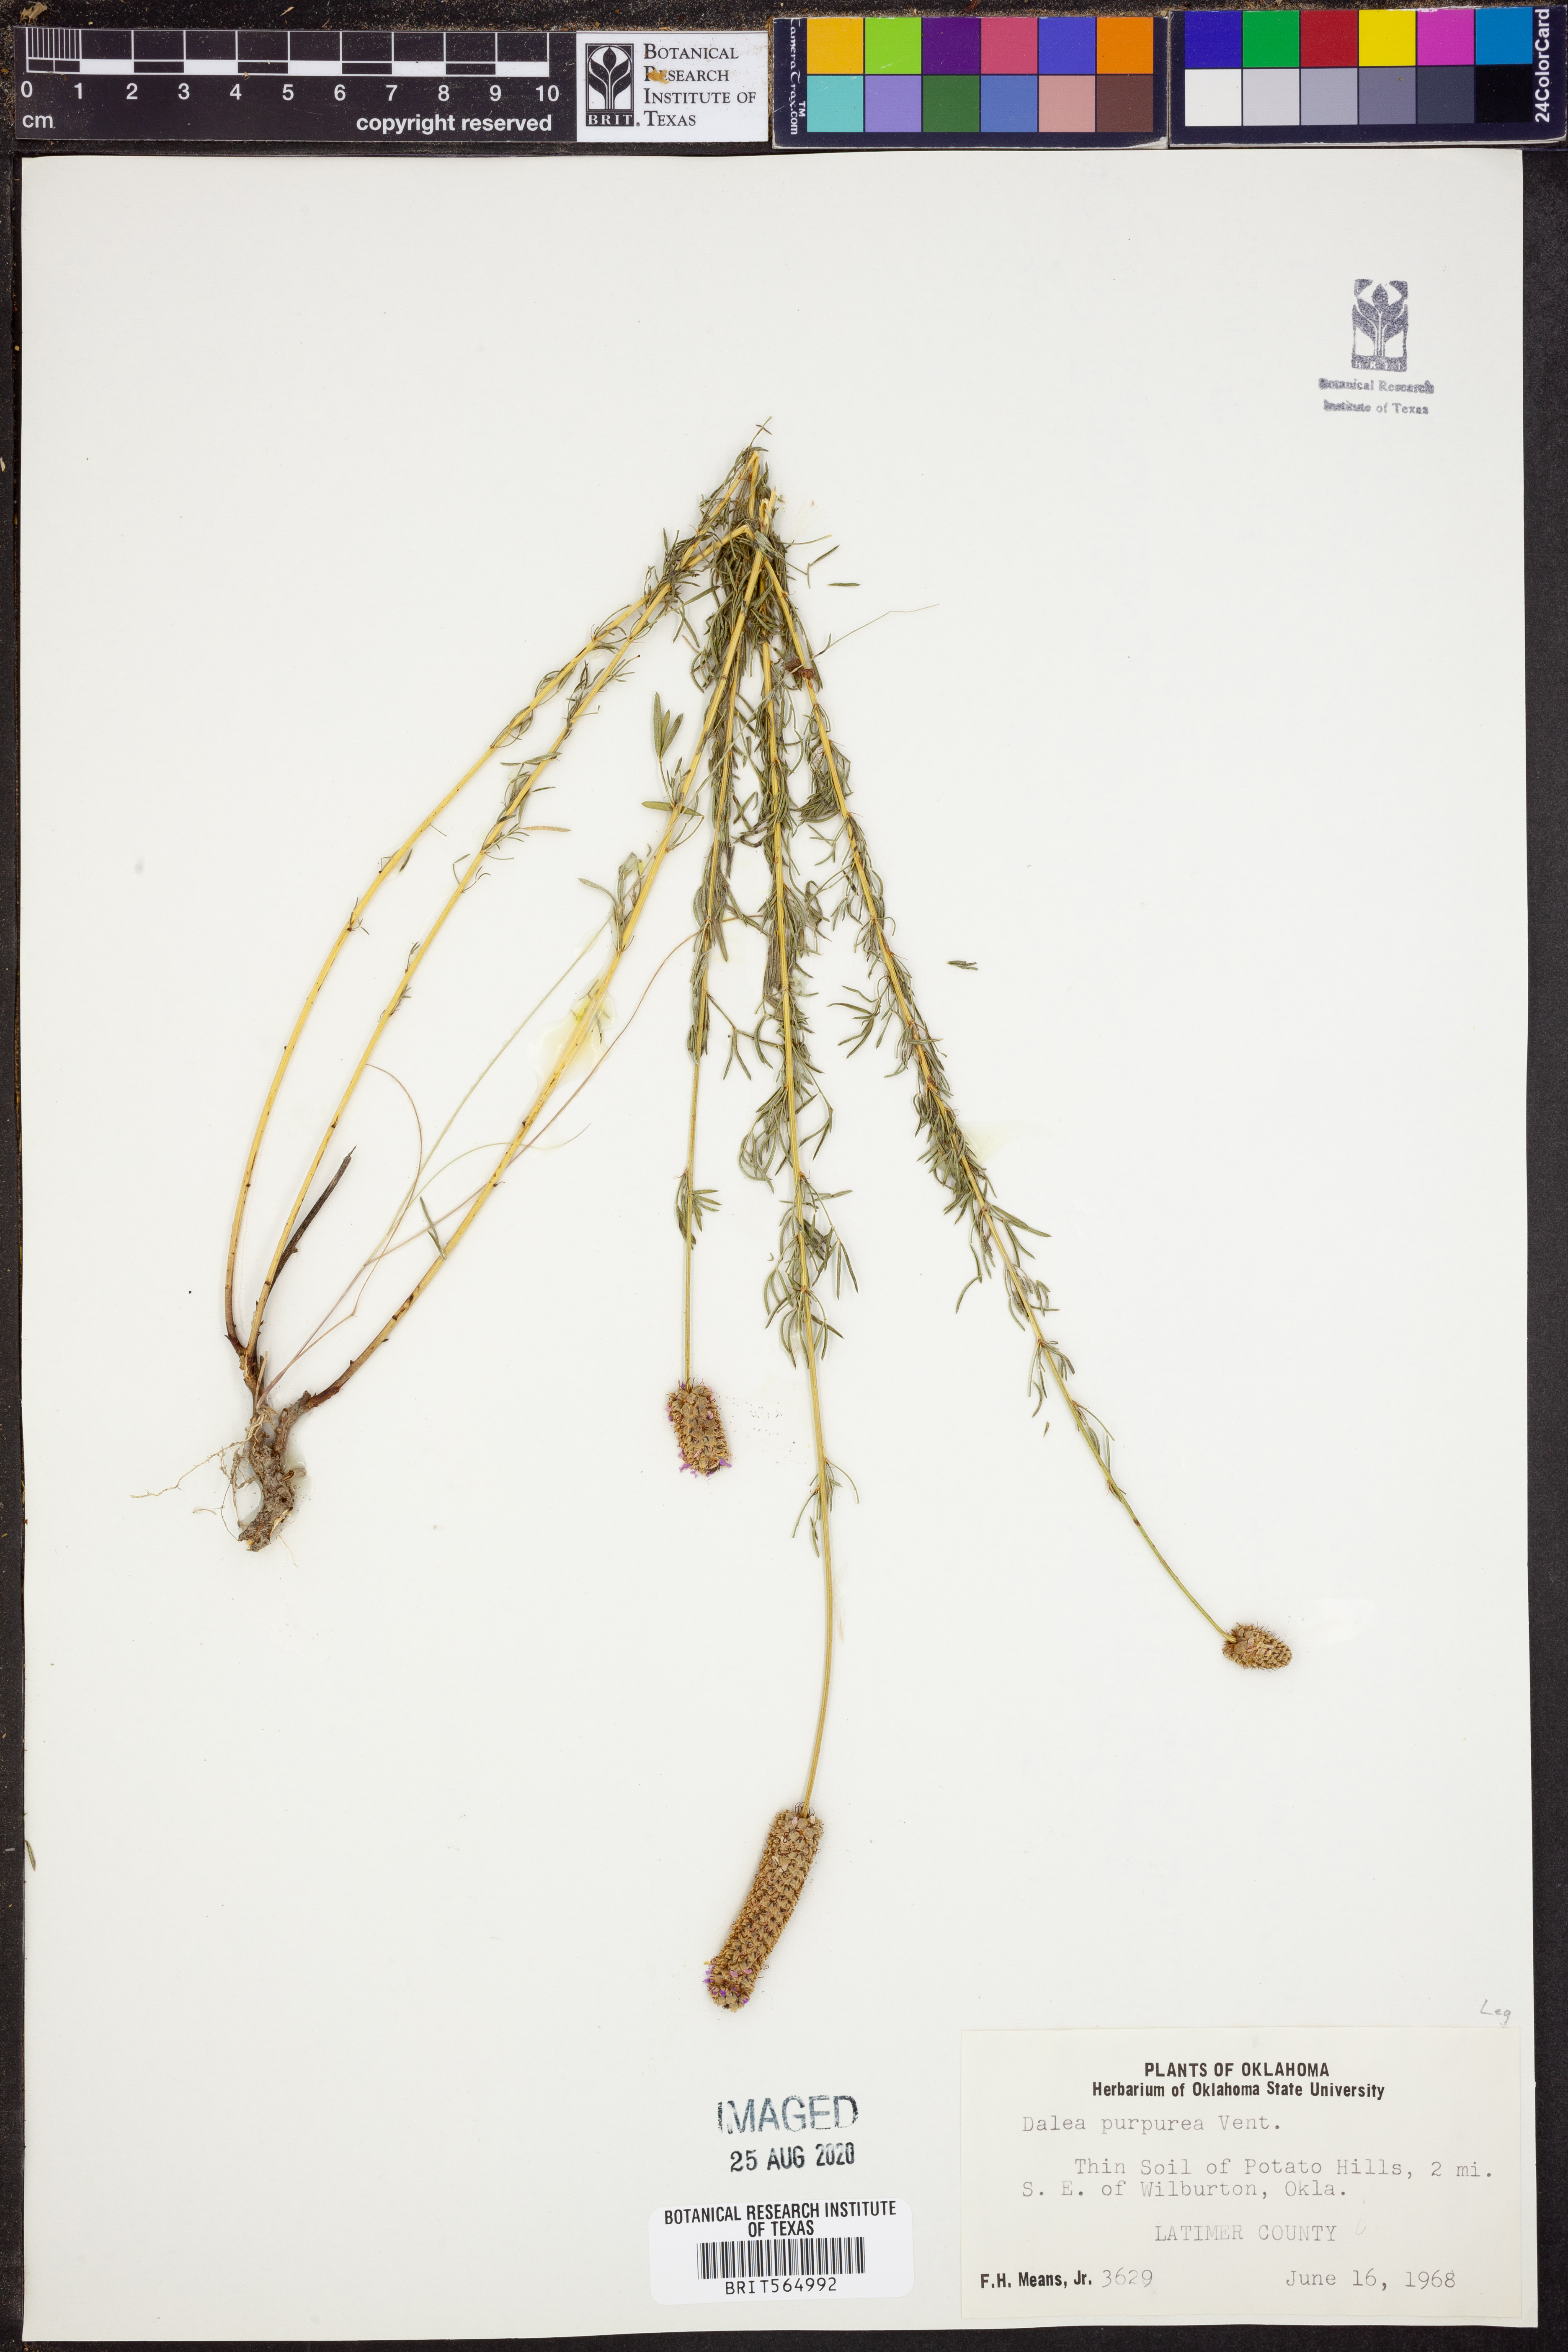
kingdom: Plantae
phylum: Tracheophyta
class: Magnoliopsida
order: Fabales
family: Fabaceae
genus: Dalea
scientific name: Dalea purpurea
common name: Purple prairie-clover
